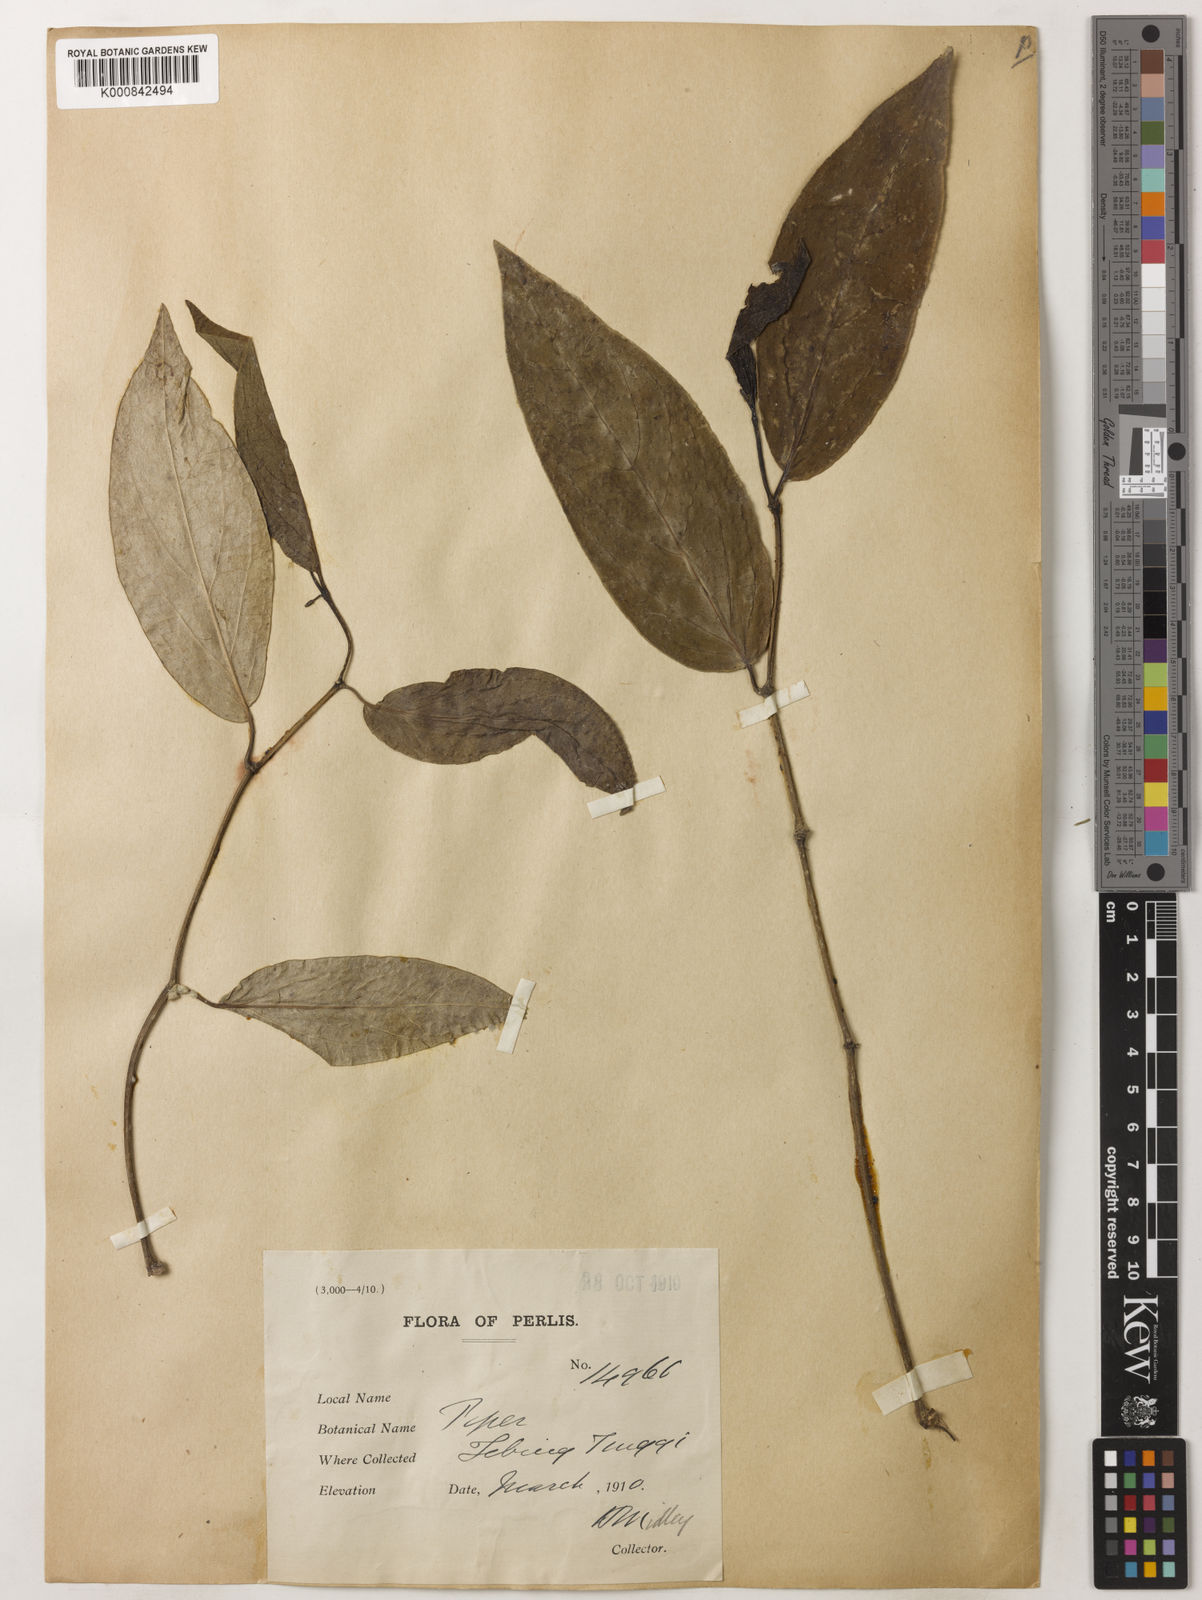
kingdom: Plantae
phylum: Tracheophyta
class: Magnoliopsida
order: Piperales
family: Piperaceae
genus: Piper
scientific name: Piper
